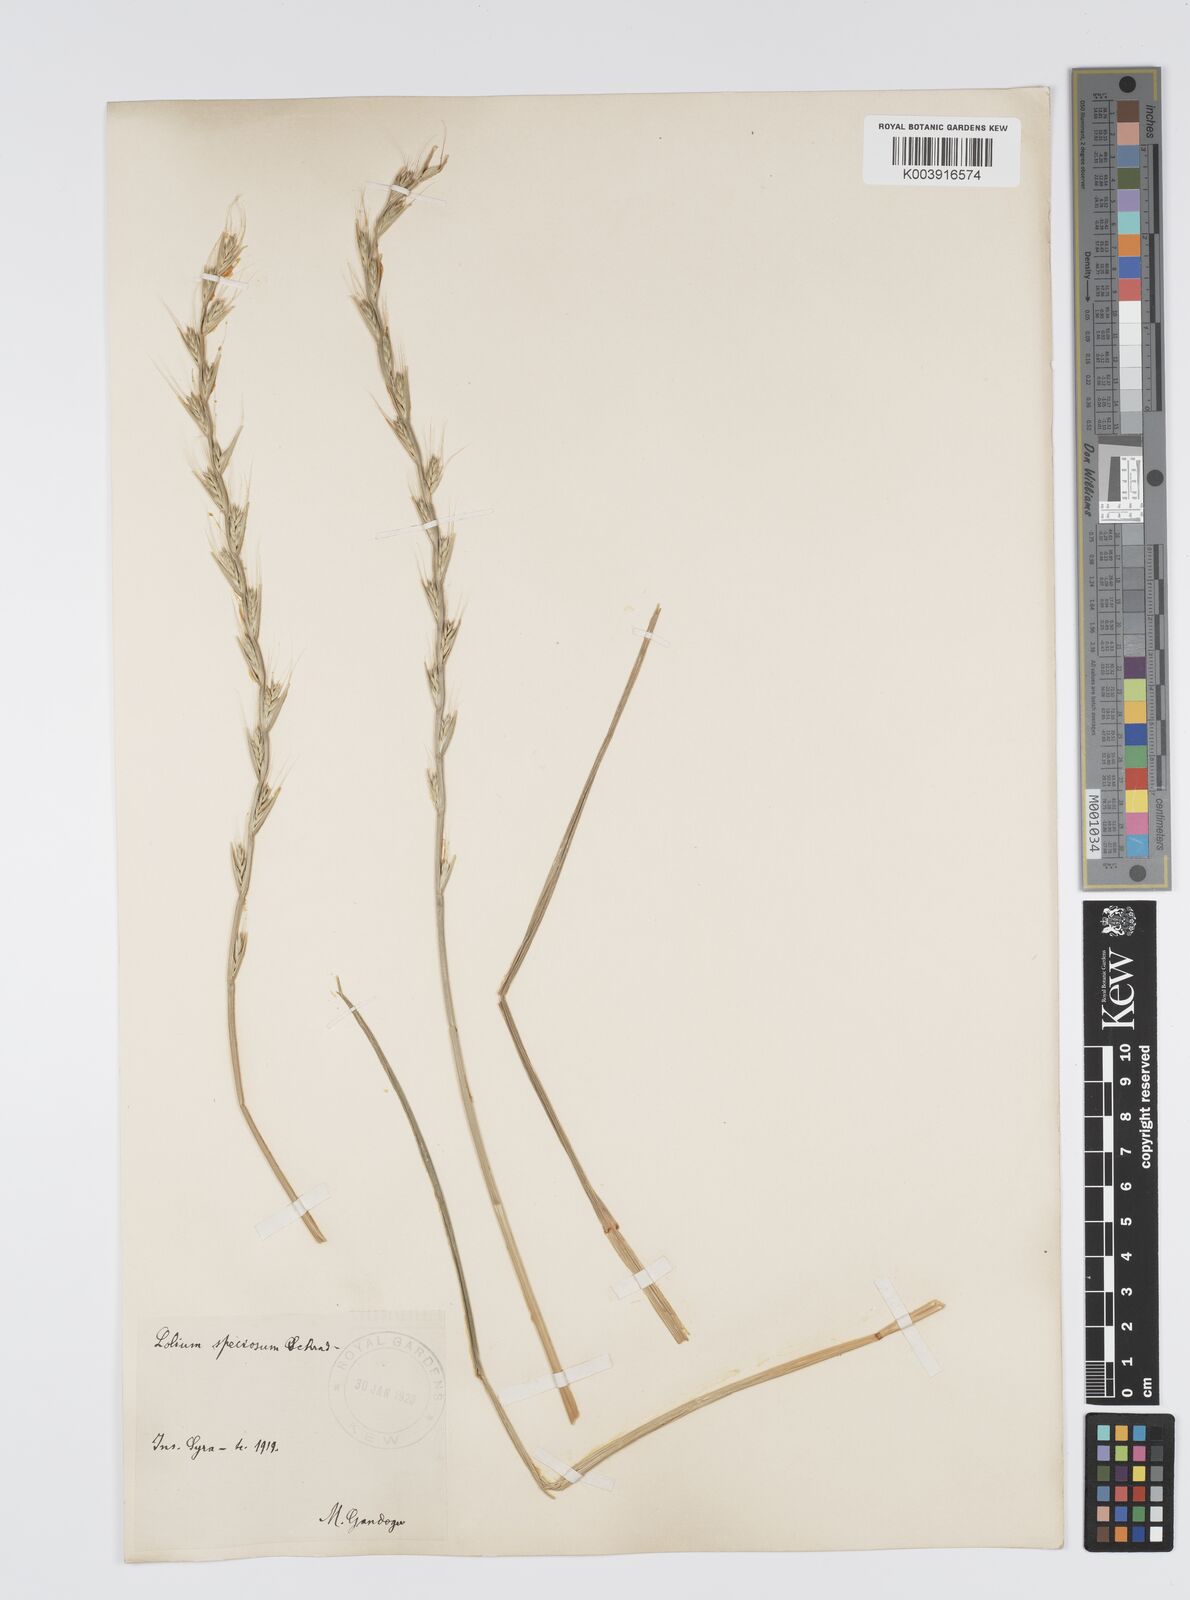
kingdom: Plantae
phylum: Tracheophyta
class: Liliopsida
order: Poales
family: Poaceae
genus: Lolium
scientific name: Lolium temulentum
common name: Darnel
